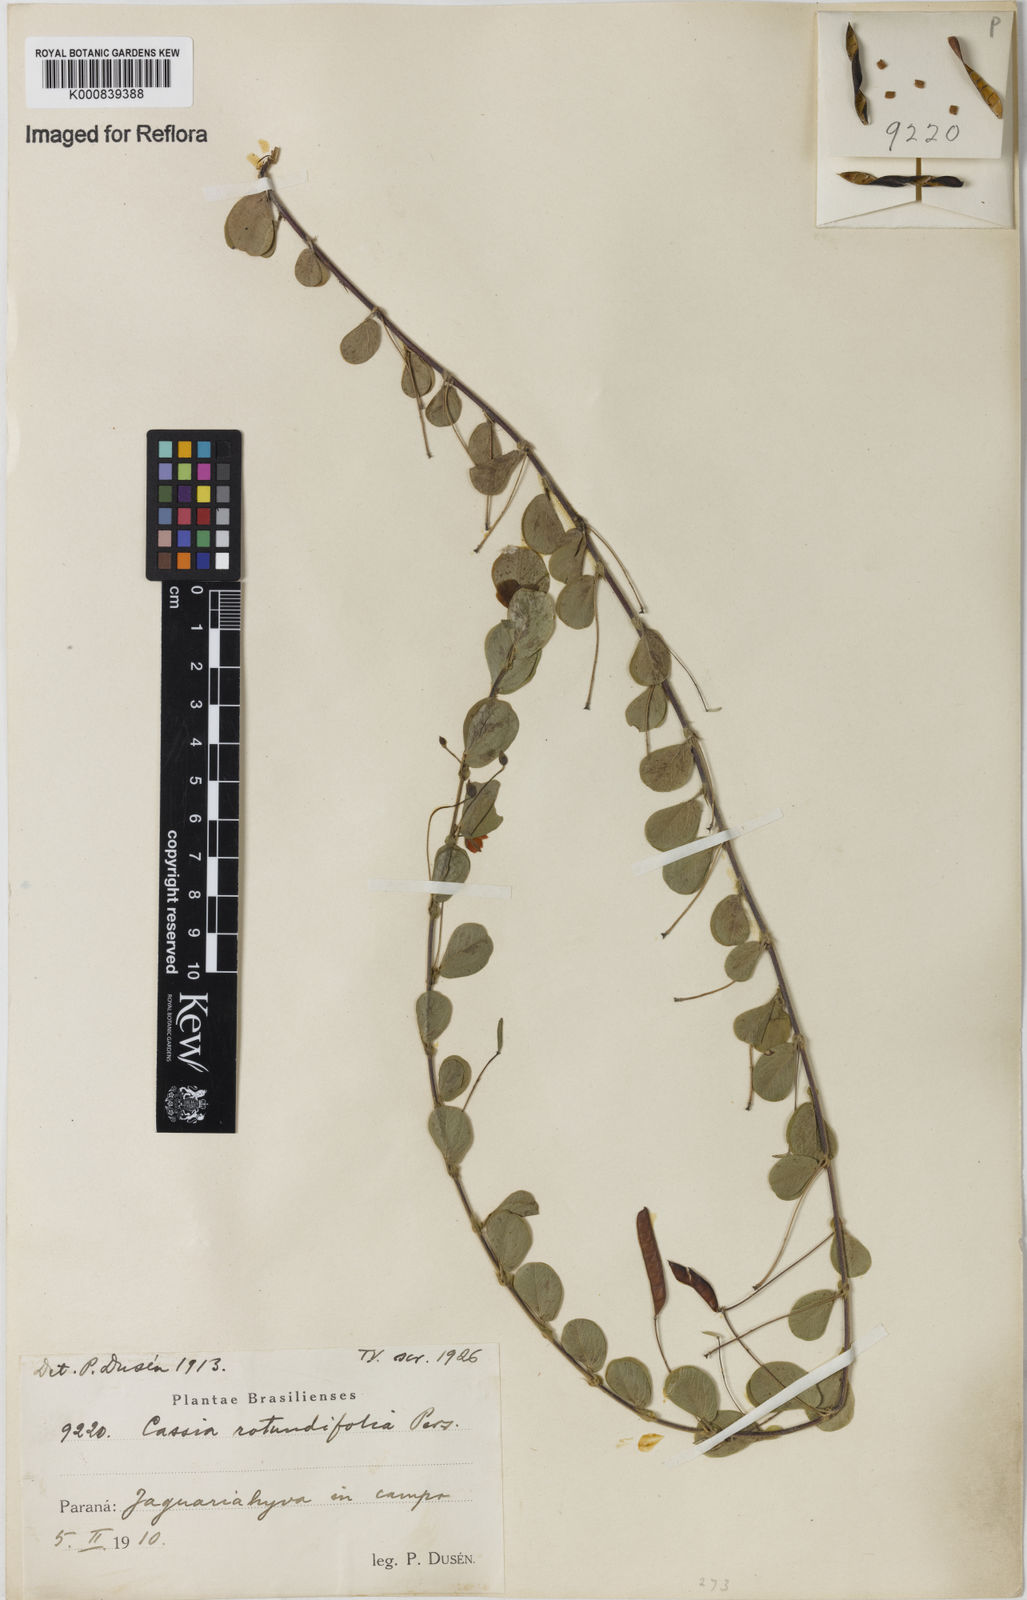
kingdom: Plantae
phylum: Tracheophyta
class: Magnoliopsida
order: Fabales
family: Fabaceae
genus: Chamaecrista
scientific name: Chamaecrista rotundifolia
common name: Round-leaf cassia
